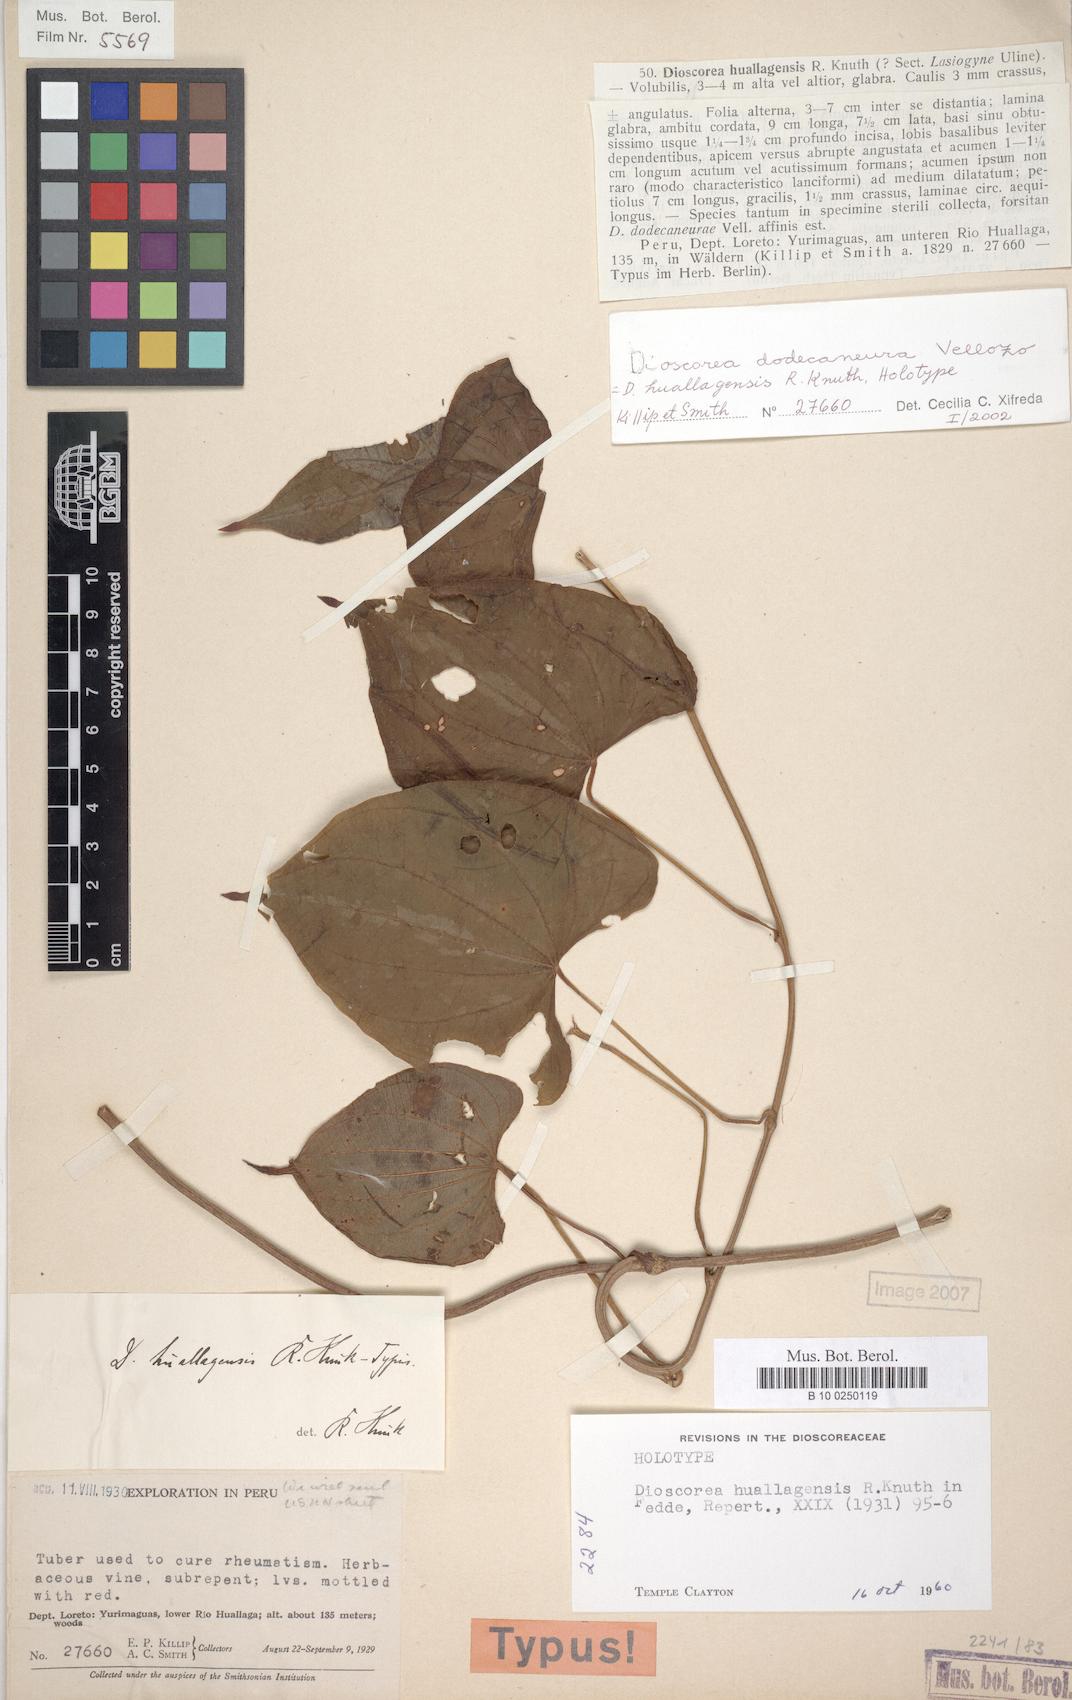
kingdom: Plantae
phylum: Tracheophyta
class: Liliopsida
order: Dioscoreales
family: Dioscoreaceae
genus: Dioscorea
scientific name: Dioscorea dodecaneura
